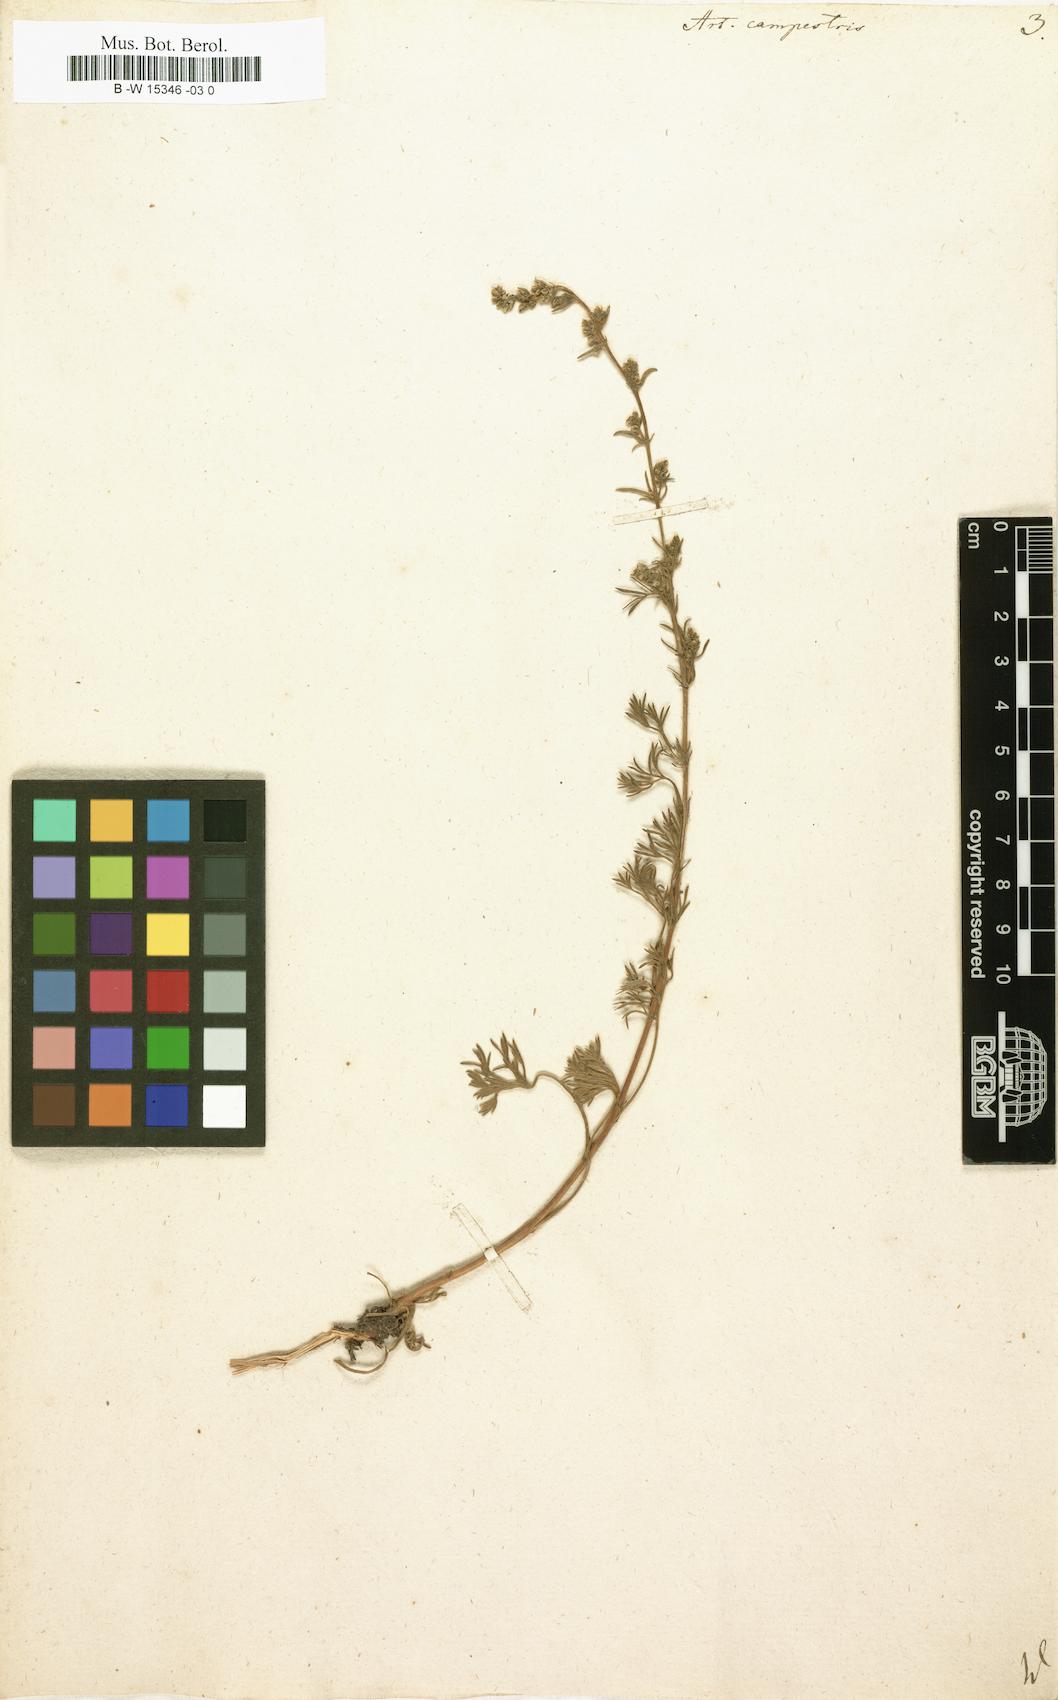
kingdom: Plantae
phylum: Tracheophyta
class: Magnoliopsida
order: Asterales
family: Asteraceae
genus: Artemisia
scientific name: Artemisia campestris
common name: Field wormwood
